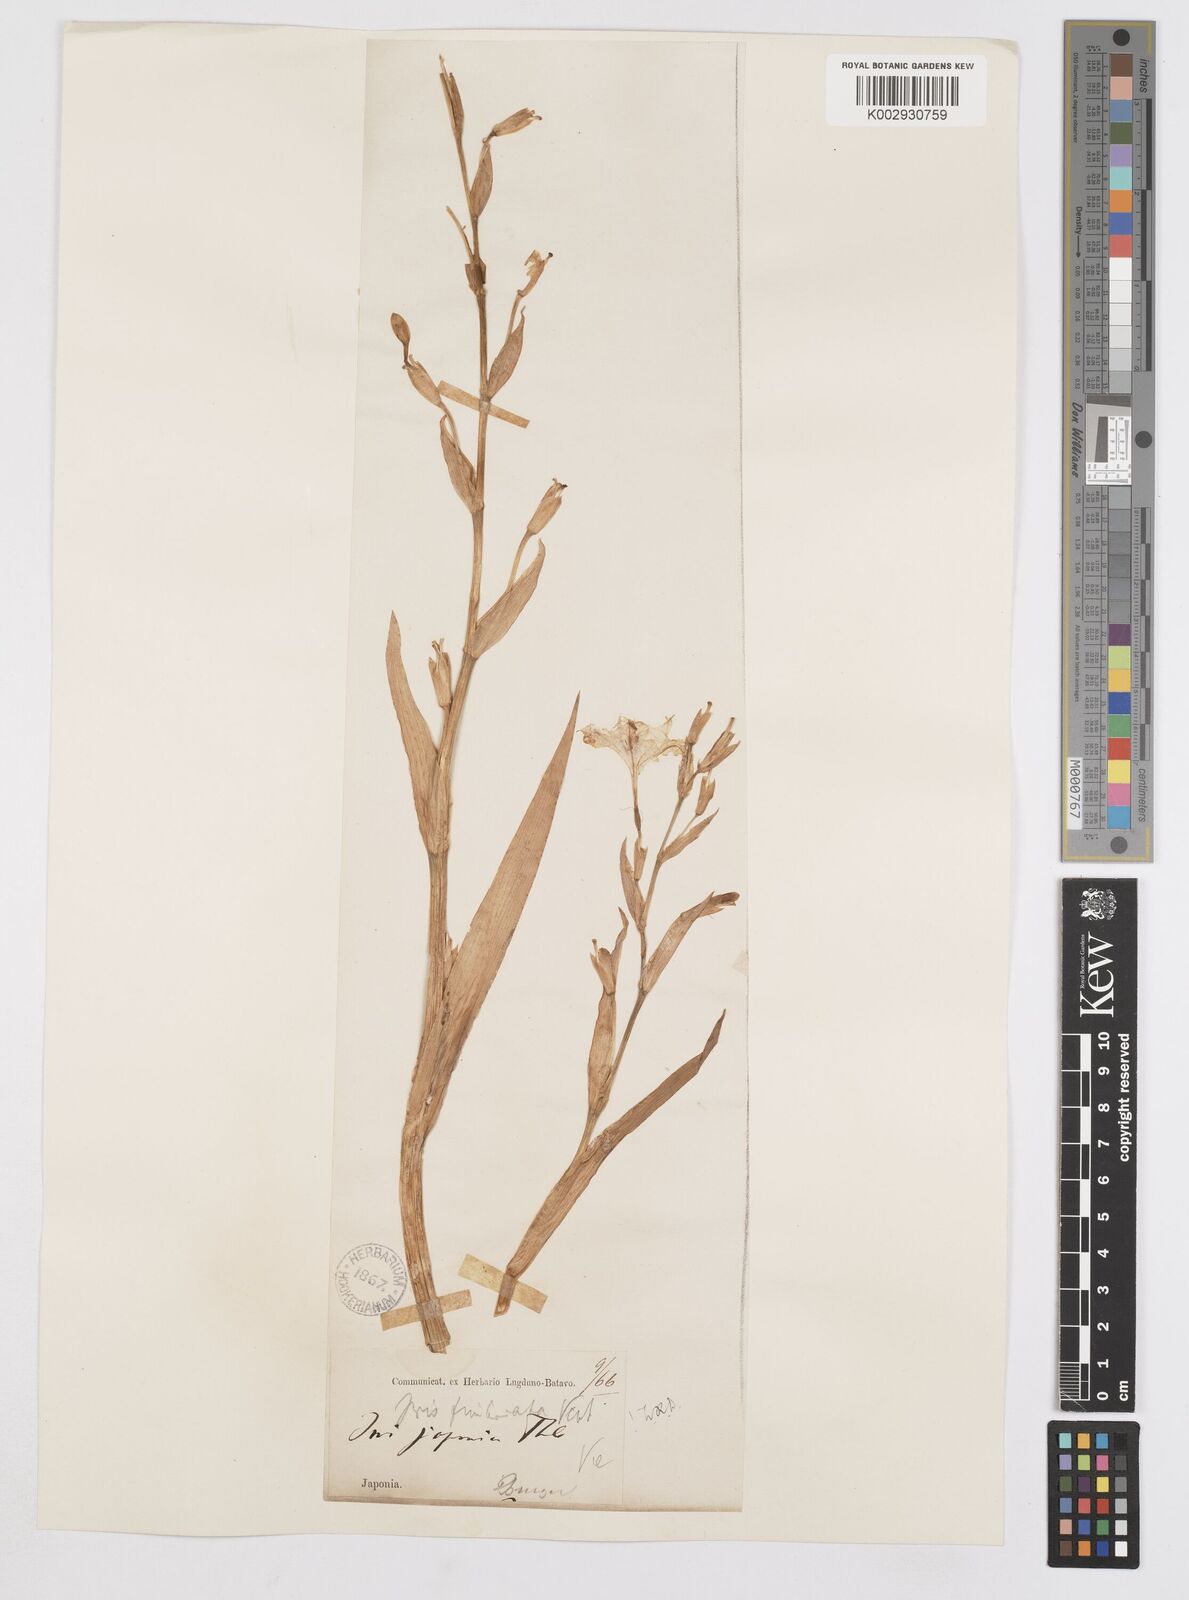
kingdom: Plantae
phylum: Tracheophyta
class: Liliopsida
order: Asparagales
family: Iridaceae
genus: Iris
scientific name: Iris japonica
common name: Butterfly-flower
